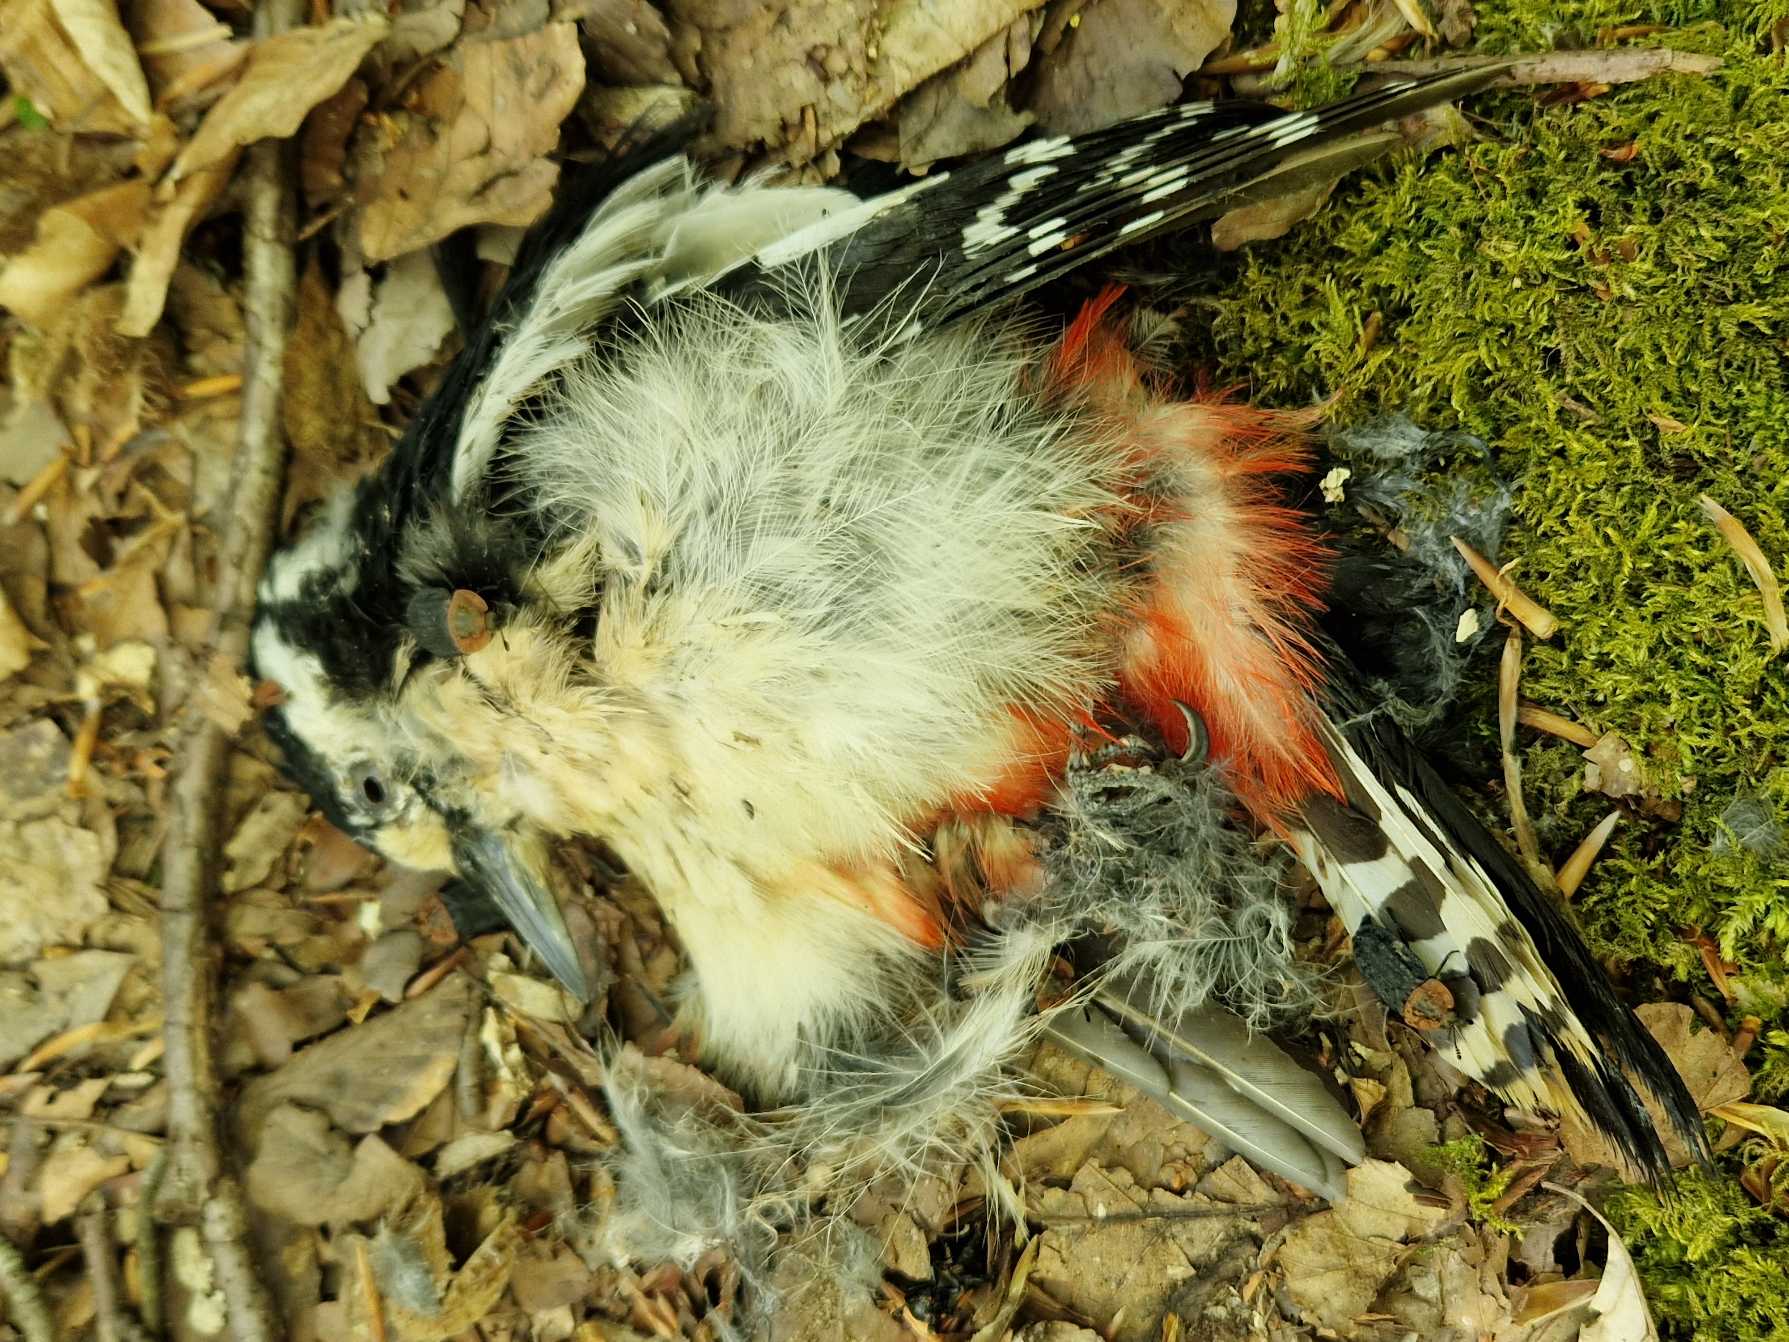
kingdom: Animalia
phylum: Chordata
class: Aves
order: Piciformes
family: Picidae
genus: Dendrocopos
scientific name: Dendrocopos major
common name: Stor flagspætte
